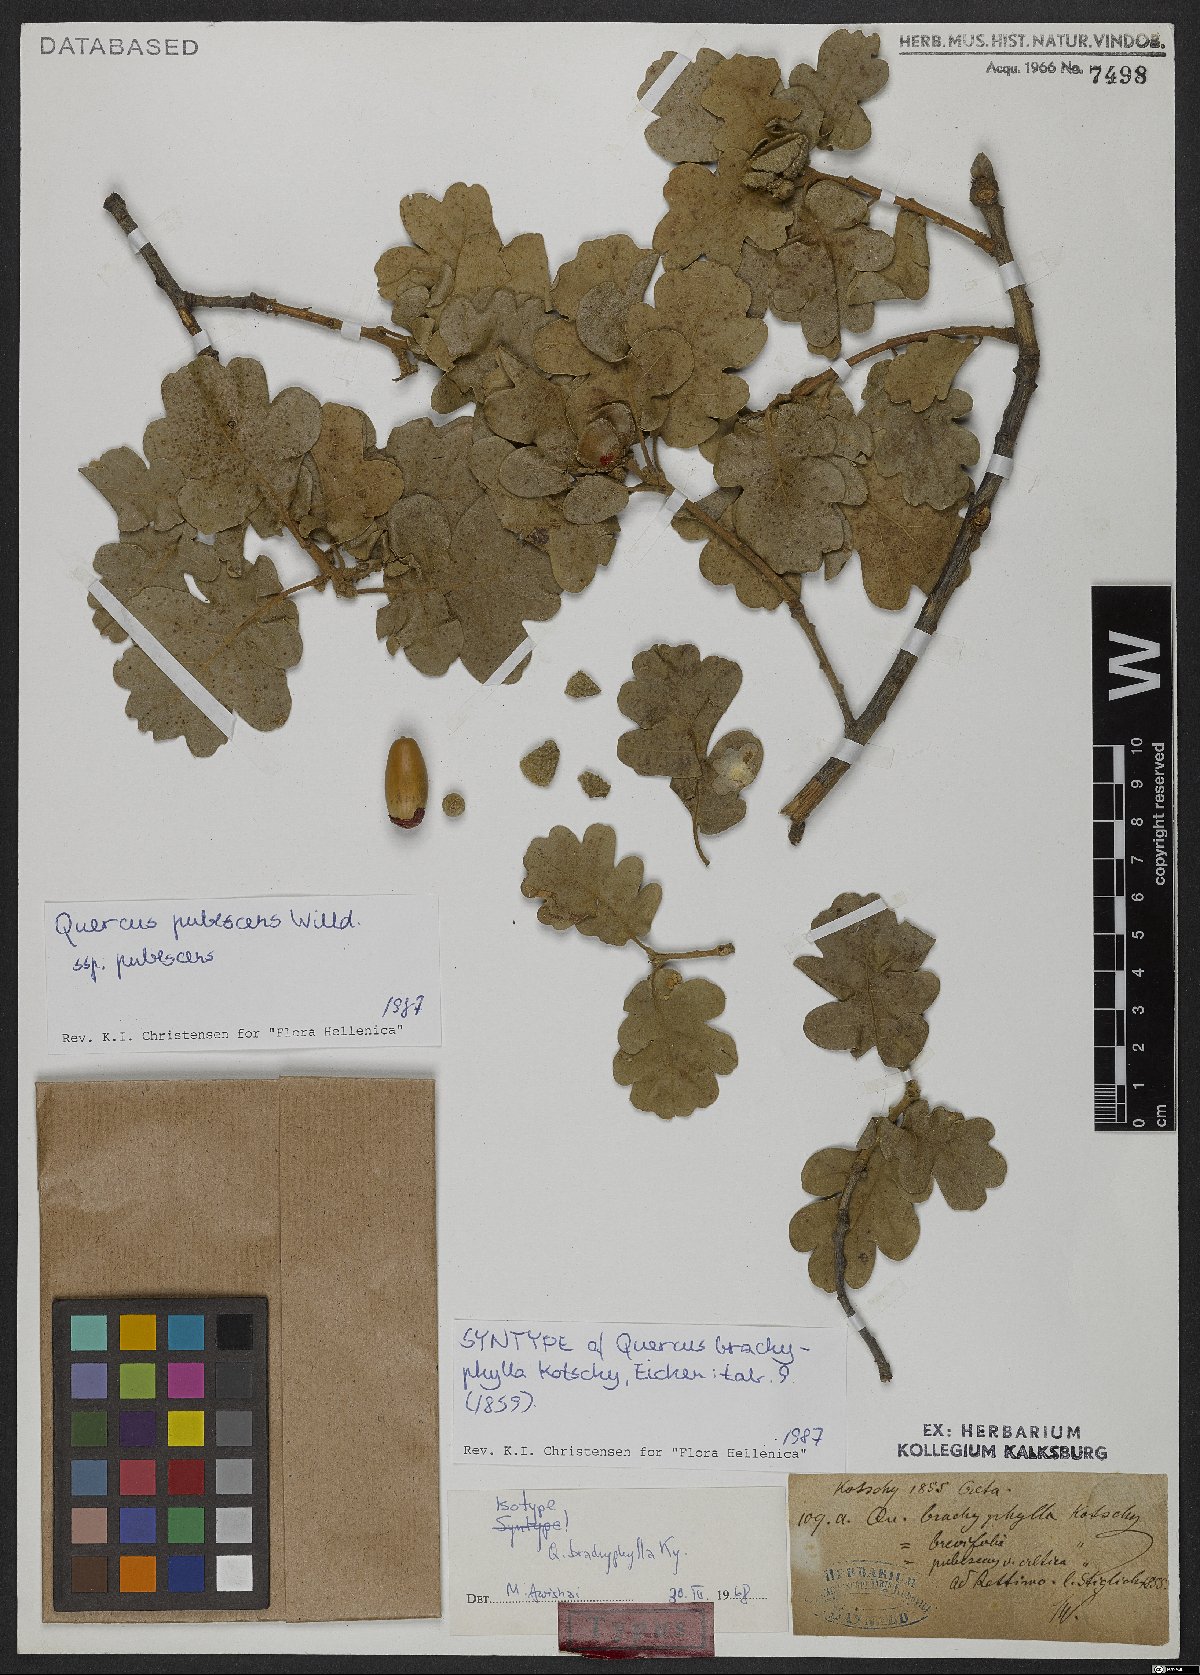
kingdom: Plantae
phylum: Tracheophyta
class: Magnoliopsida
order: Fagales
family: Fagaceae
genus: Quercus
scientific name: Quercus pubescens
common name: Downy oak
